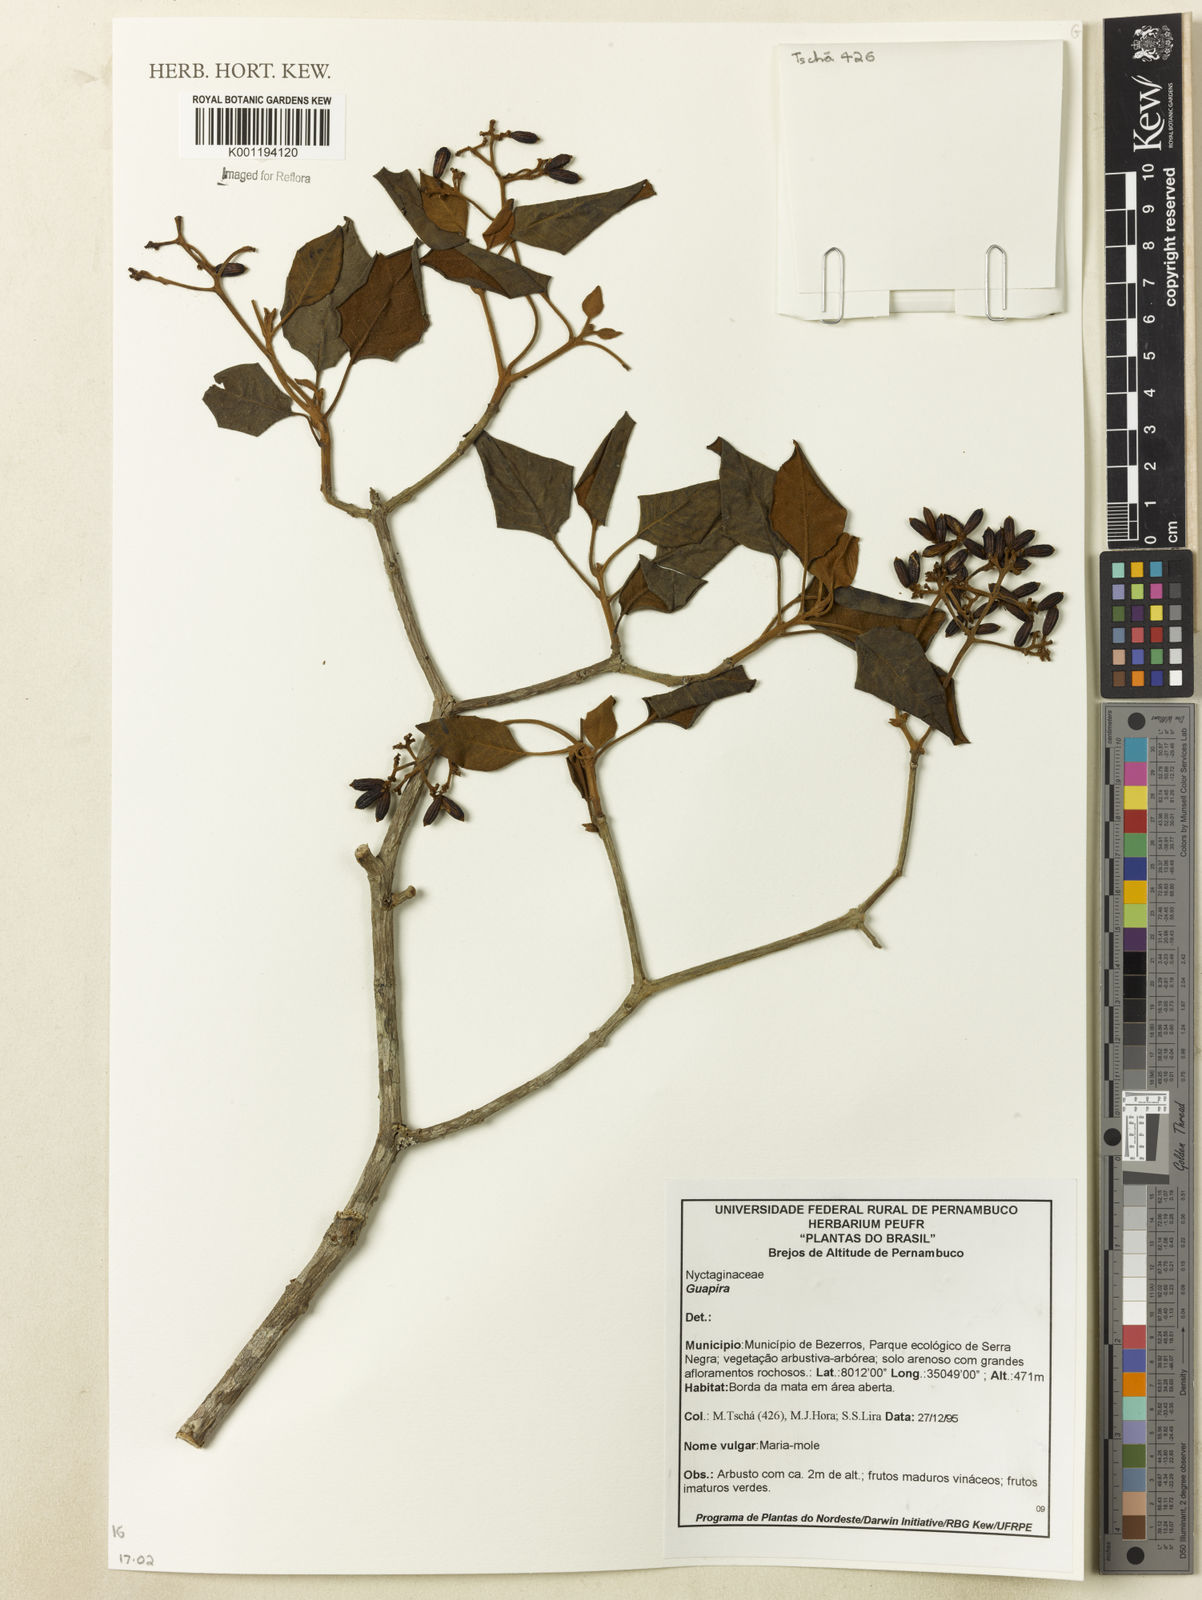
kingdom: Plantae
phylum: Tracheophyta
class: Magnoliopsida
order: Caryophyllales
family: Nyctaginaceae
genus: Guapira
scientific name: Guapira
